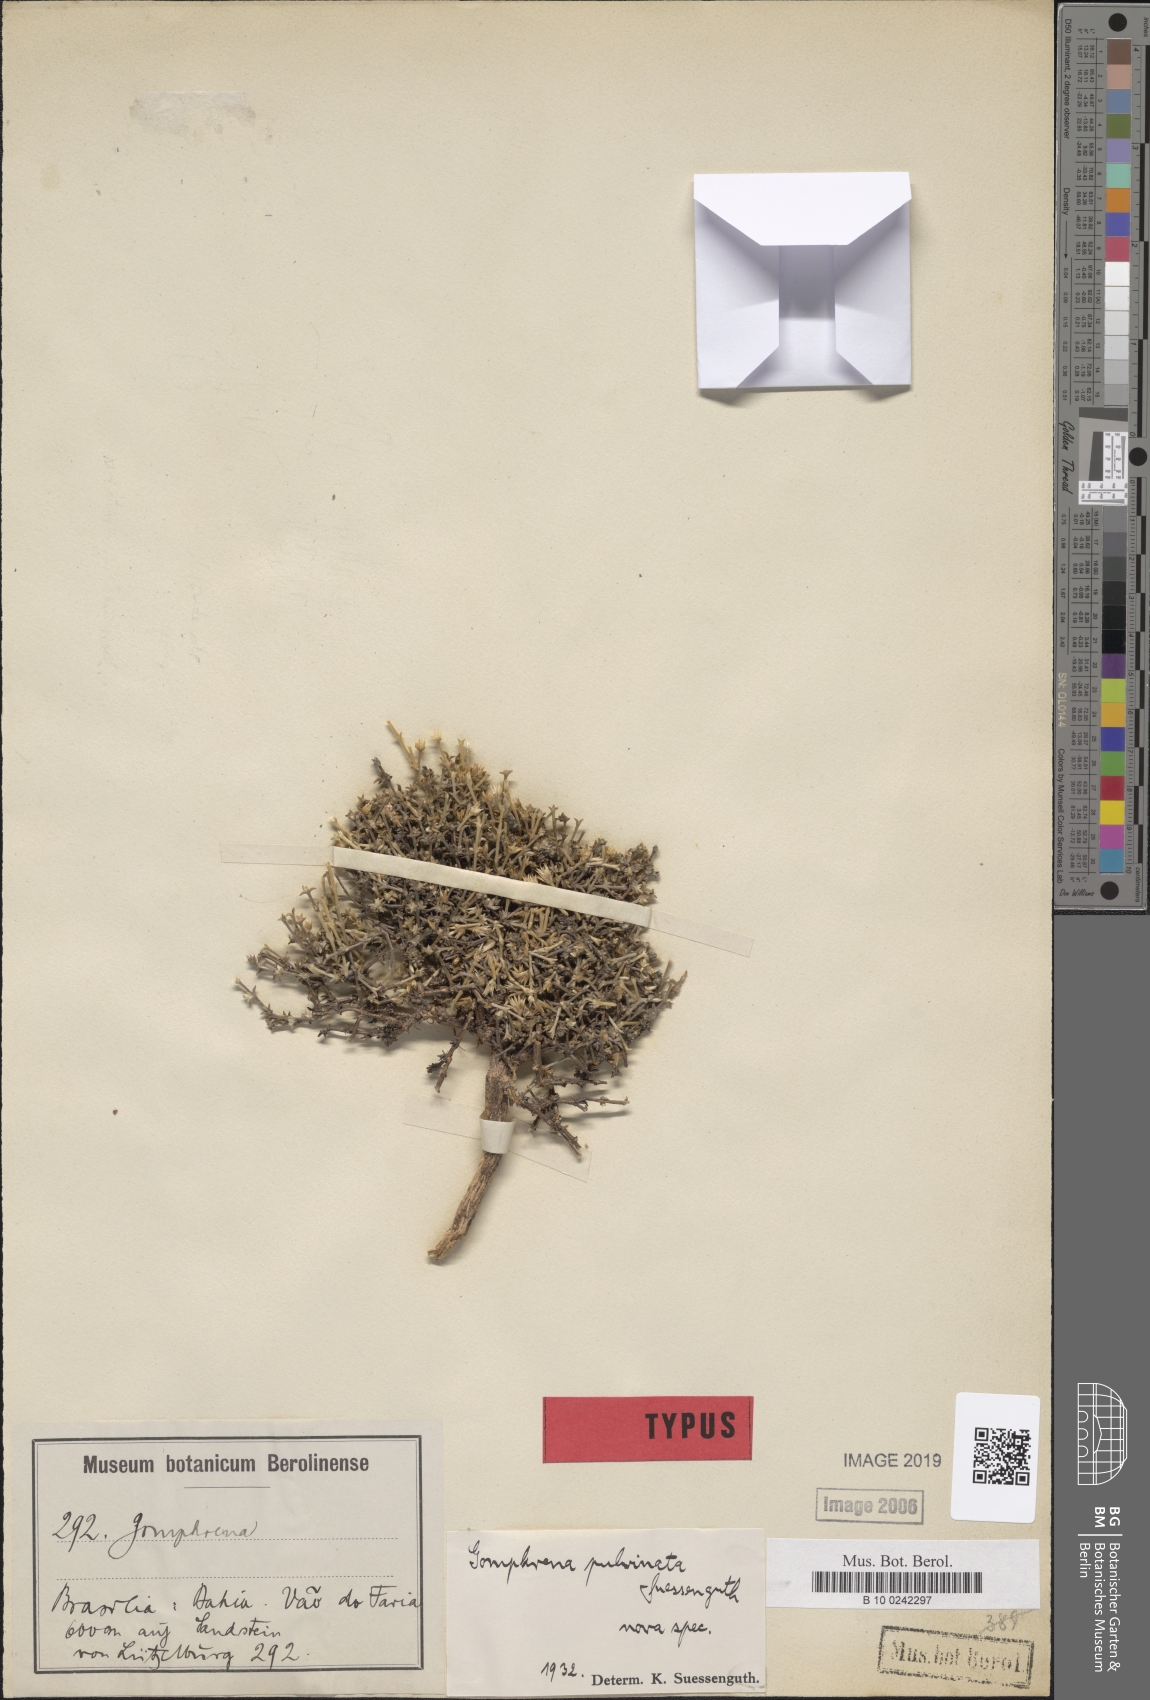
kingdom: Plantae
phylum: Tracheophyta
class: Magnoliopsida
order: Caryophyllales
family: Amaranthaceae
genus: Gomphrena
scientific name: Gomphrena pulvinata
